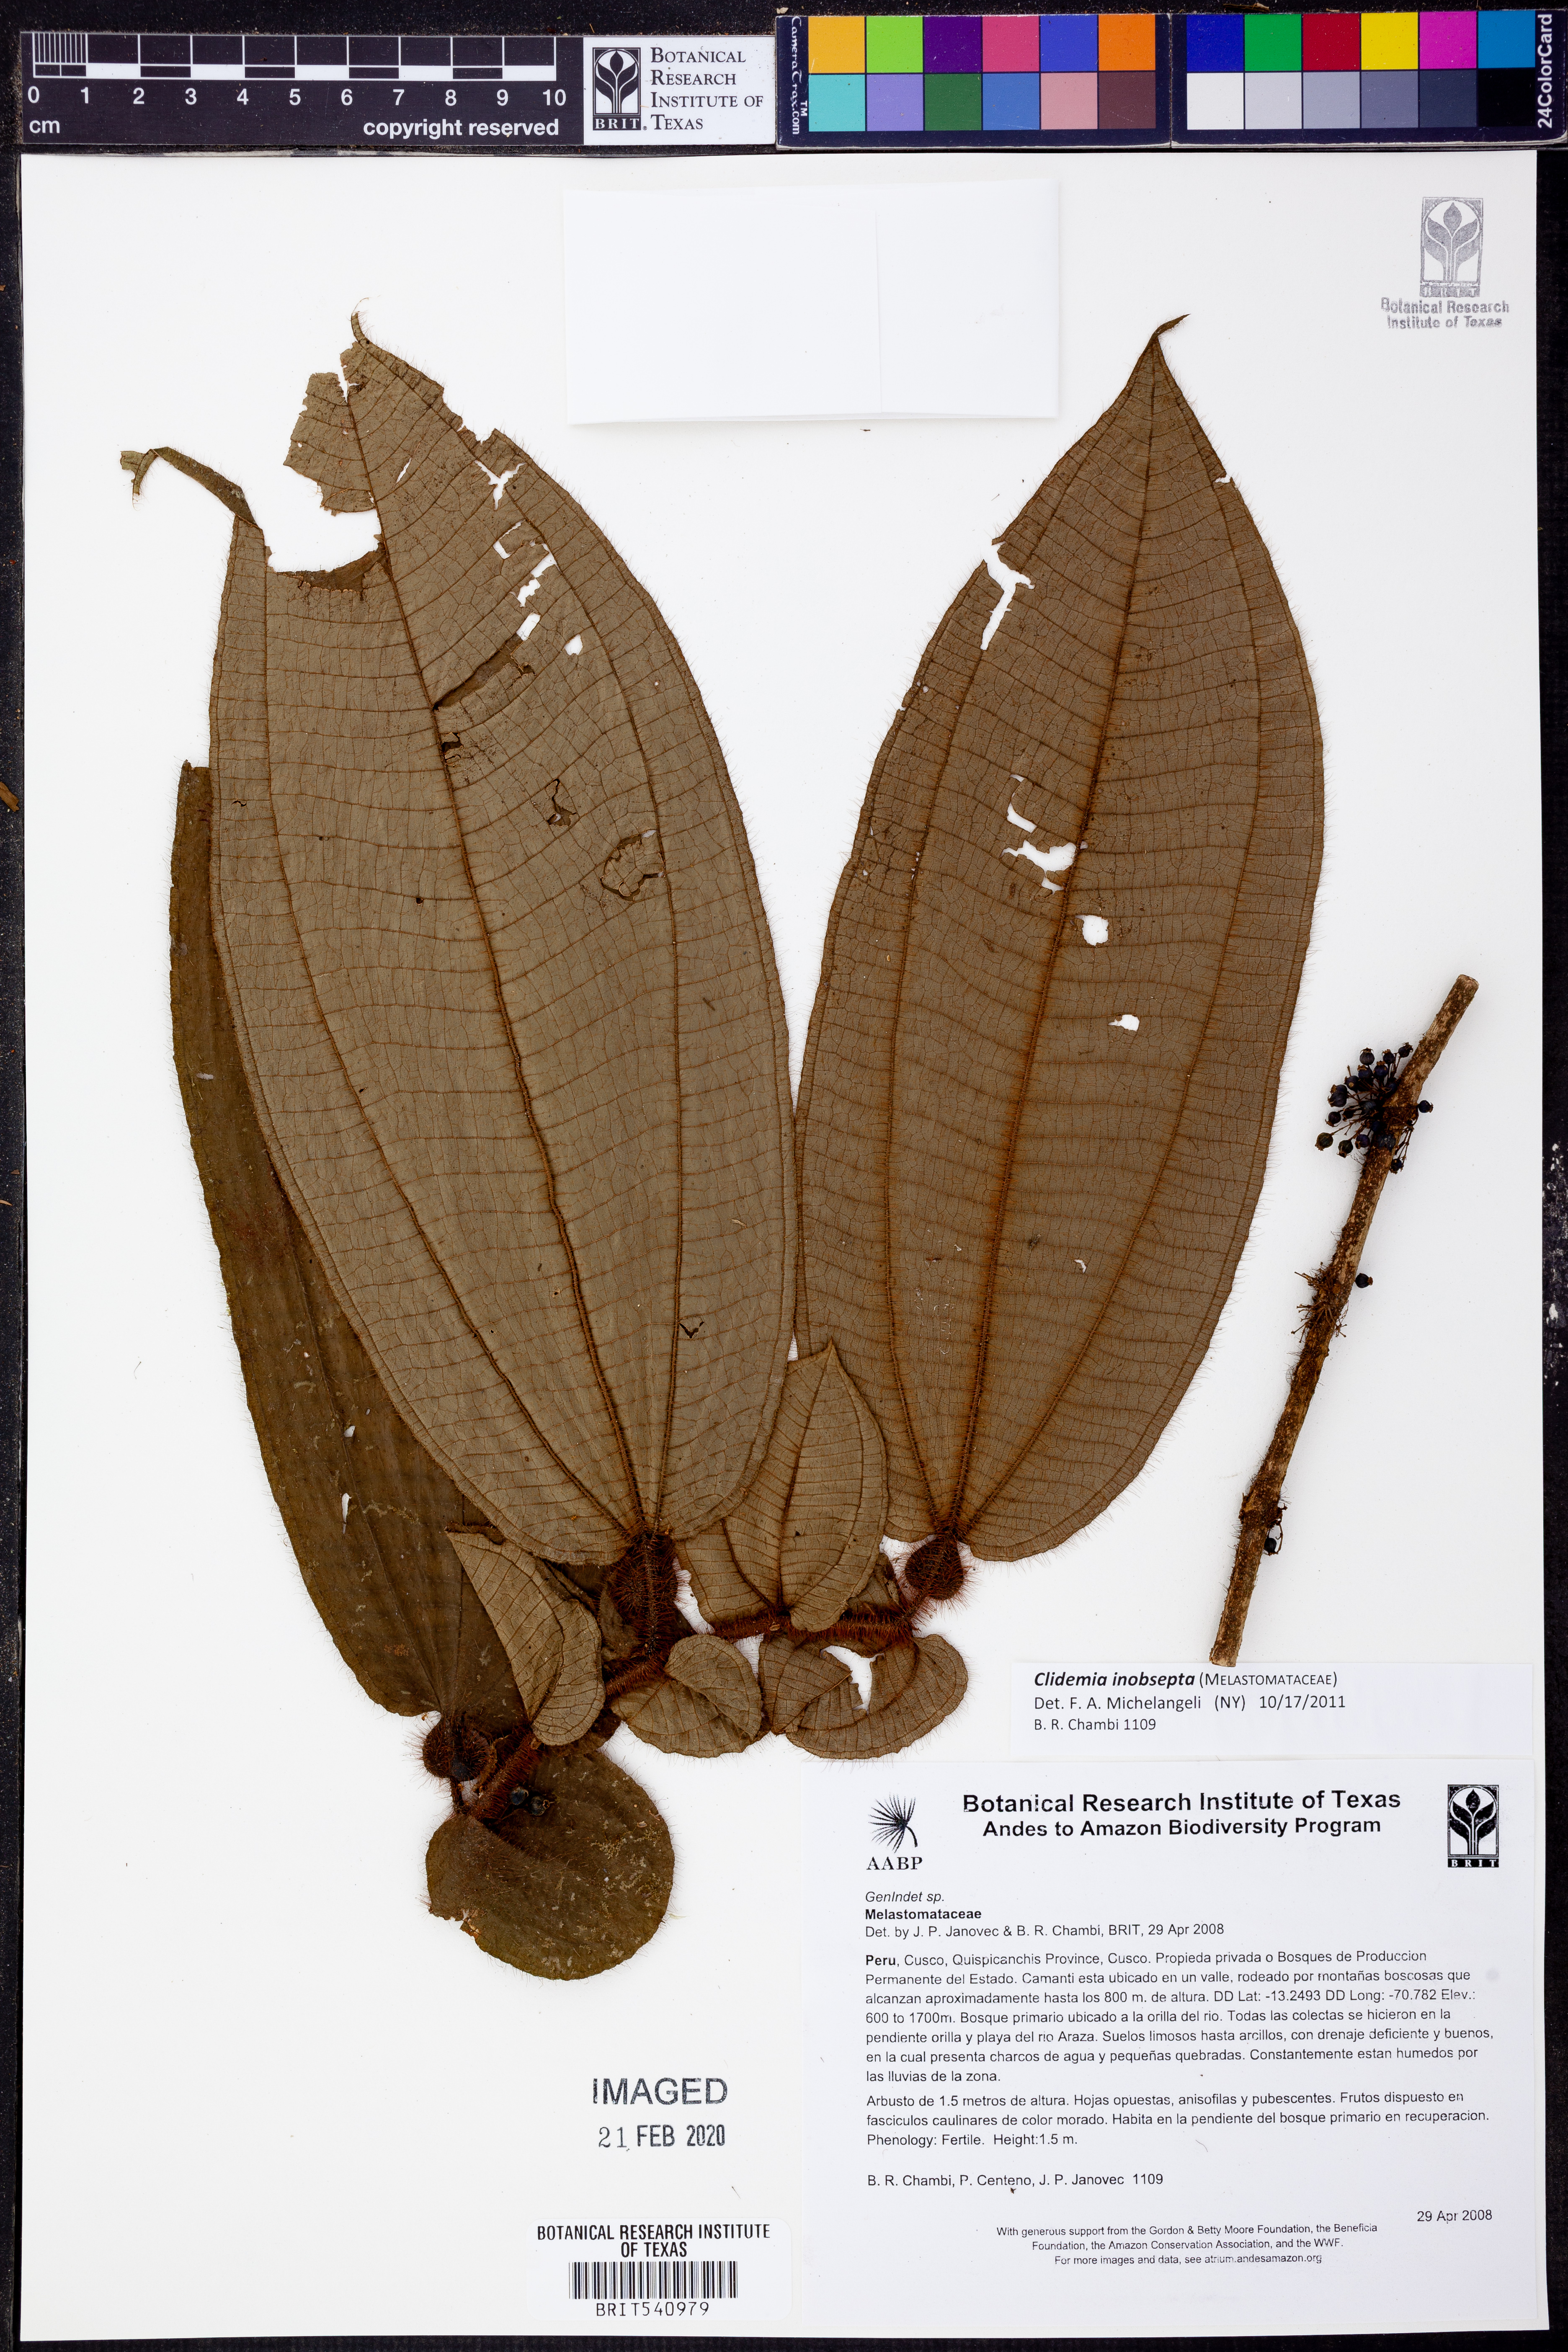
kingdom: Plantae
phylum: Tracheophyta
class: Magnoliopsida
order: Myrtales
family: Melastomataceae
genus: Miconia
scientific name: Miconia inobsepta
